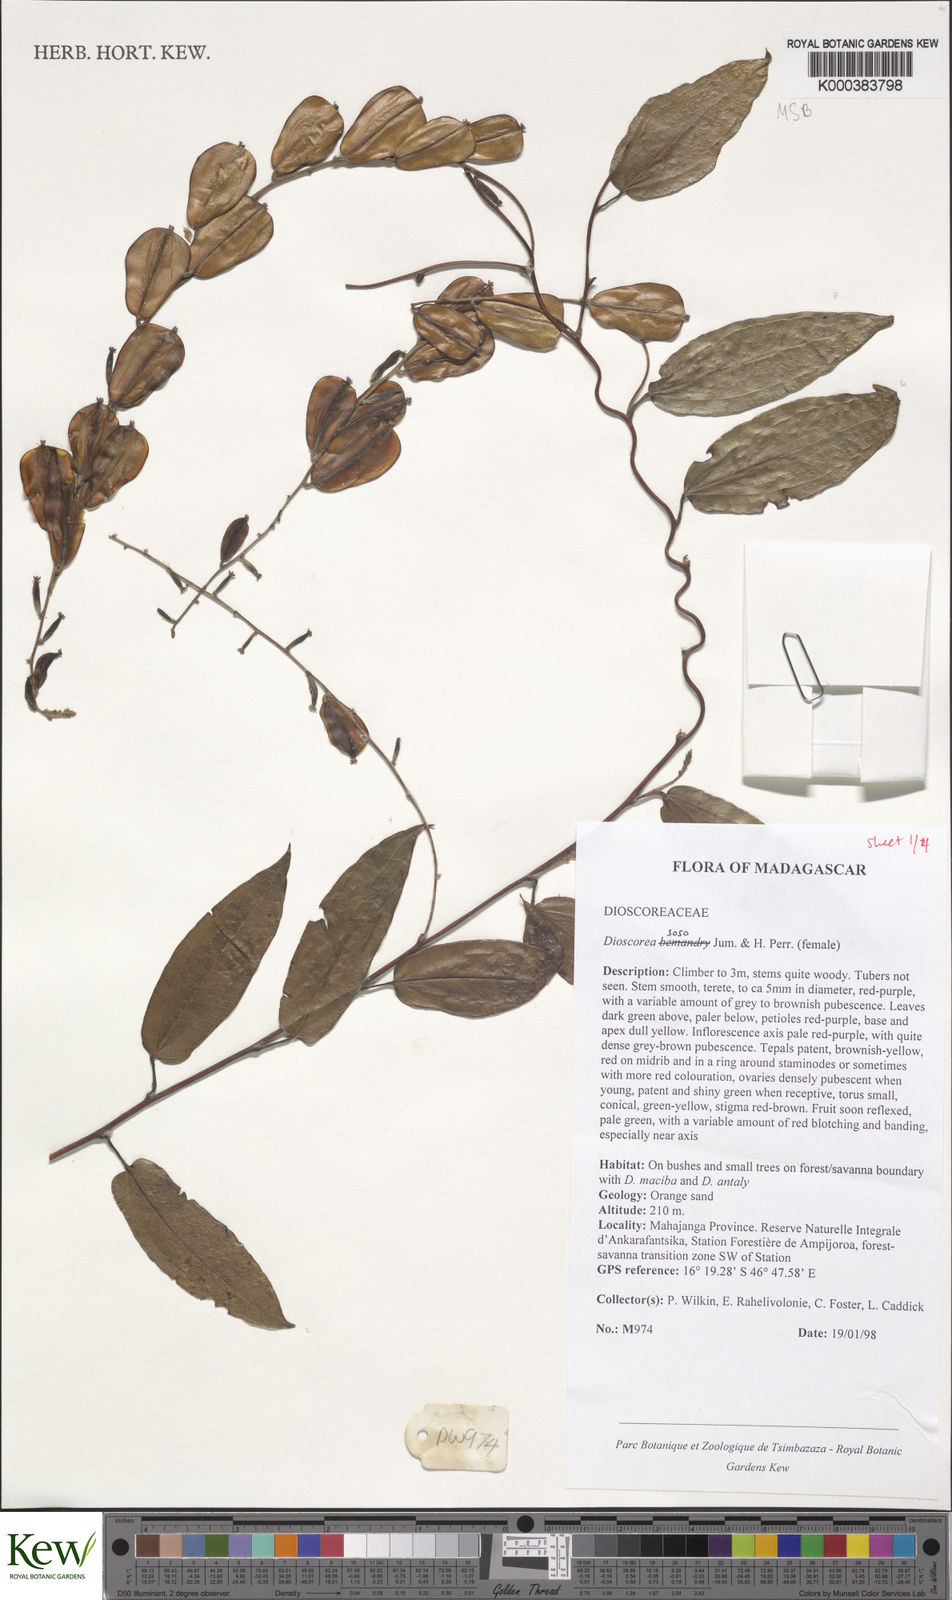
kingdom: Plantae
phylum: Tracheophyta
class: Liliopsida
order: Dioscoreales
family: Dioscoreaceae
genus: Dioscorea
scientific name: Dioscorea
